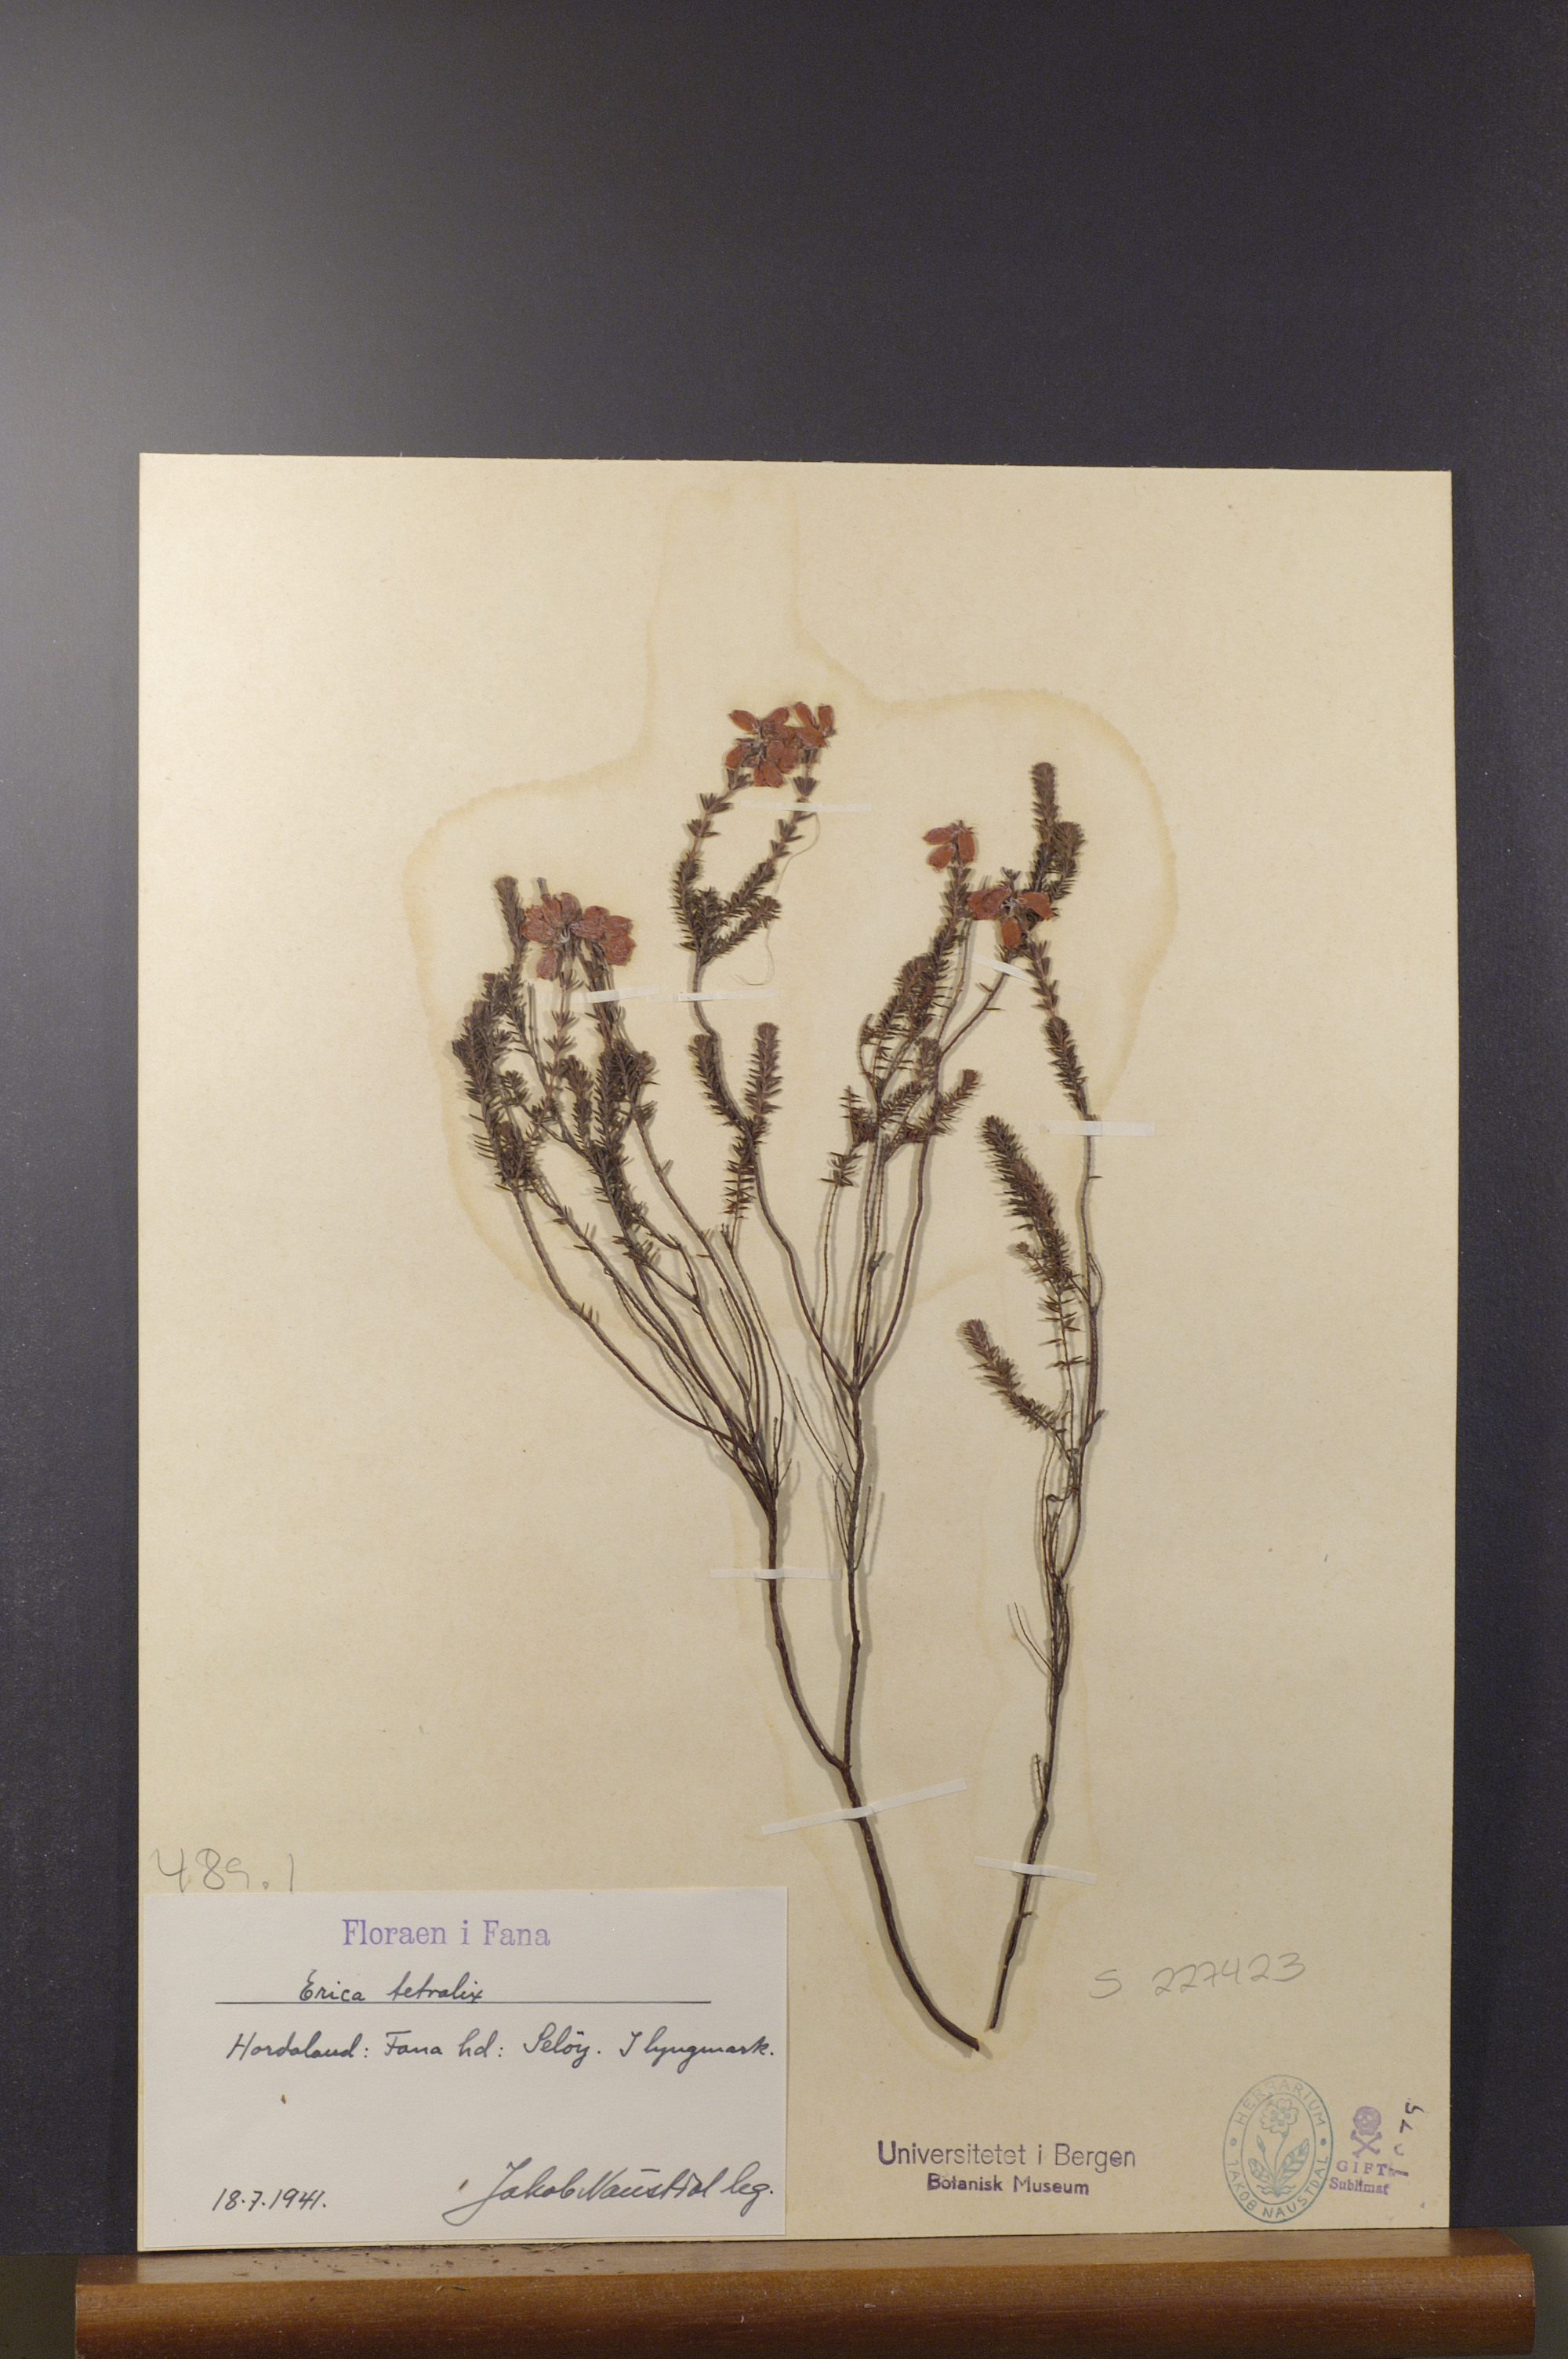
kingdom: Plantae
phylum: Tracheophyta
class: Magnoliopsida
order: Ericales
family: Ericaceae
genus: Erica
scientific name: Erica tetralix
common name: Cross-leaved heath
